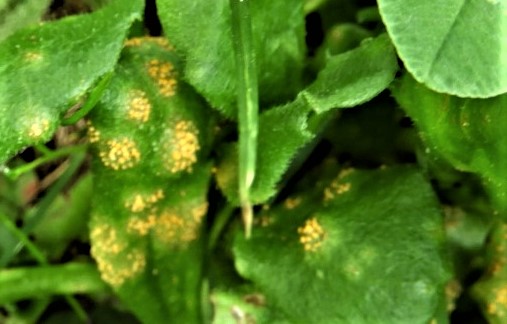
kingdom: Fungi
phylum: Basidiomycota
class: Pucciniomycetes
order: Pucciniales
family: Pucciniaceae
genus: Puccinia
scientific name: Puccinia obscura
